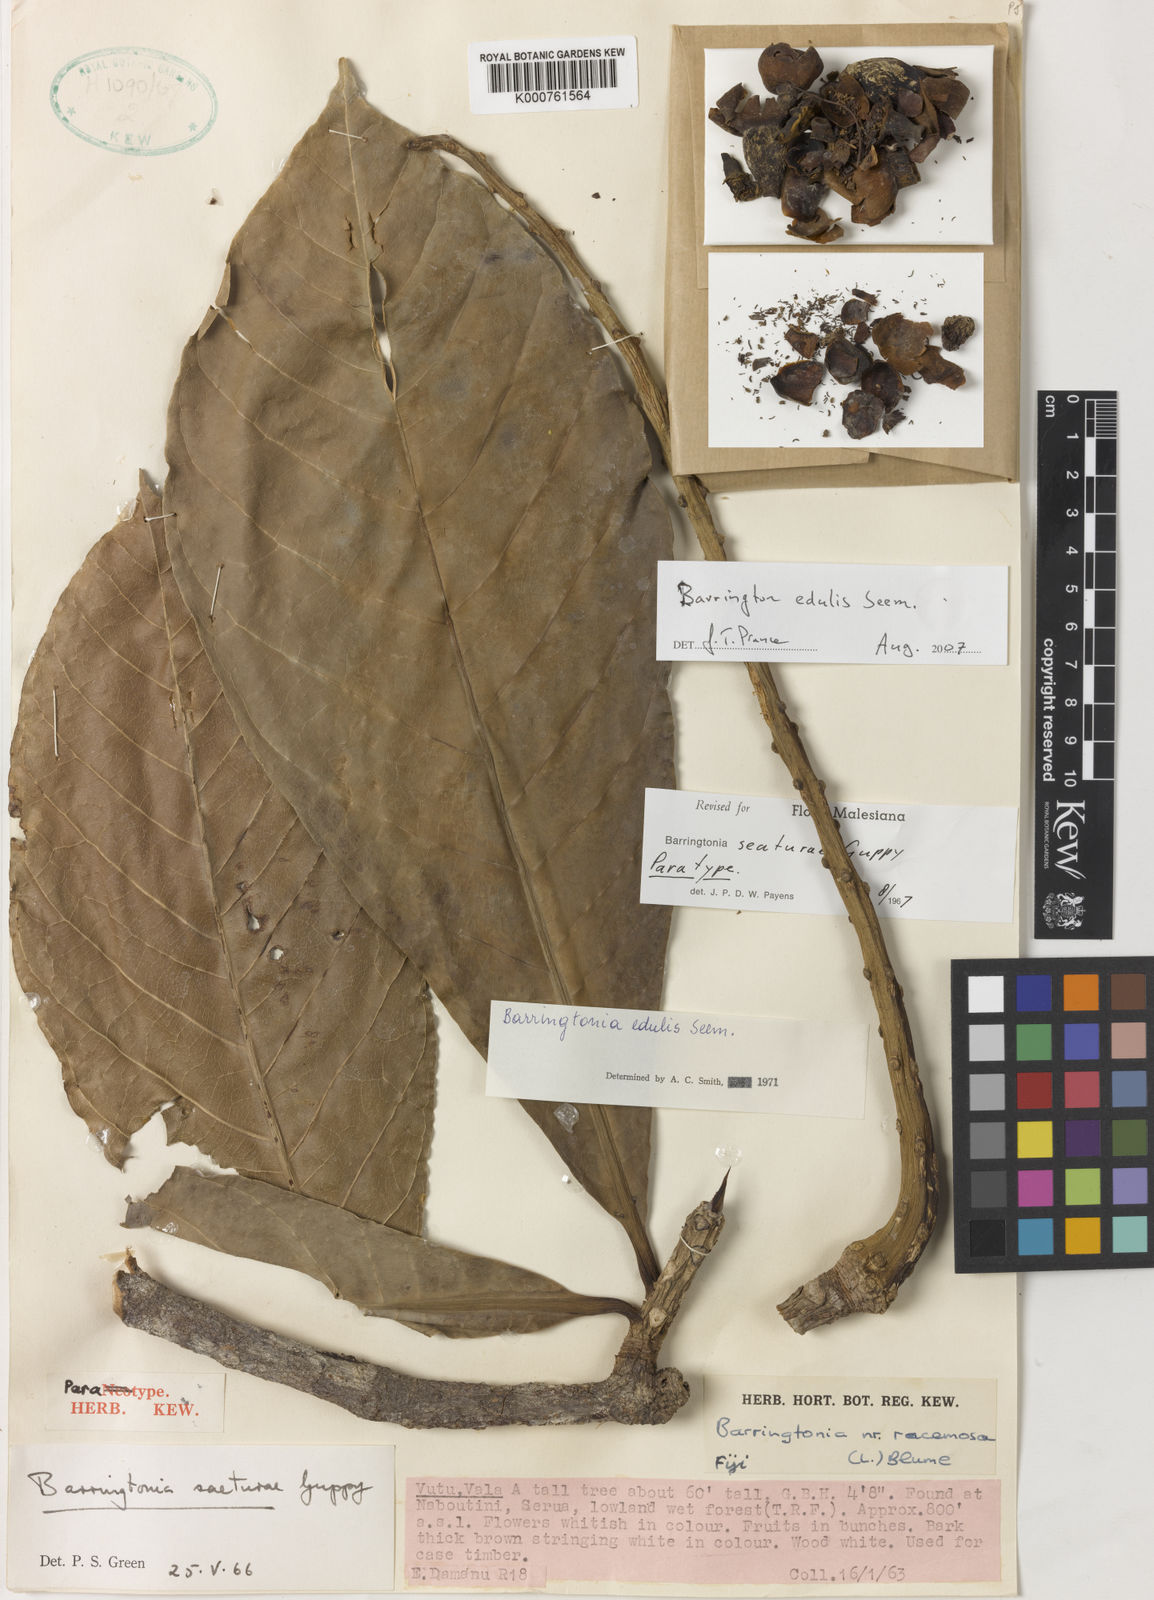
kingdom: Plantae
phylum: Tracheophyta
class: Magnoliopsida
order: Ericales
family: Lecythidaceae
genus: Barringtonia
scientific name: Barringtonia edulis
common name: Cutnut
